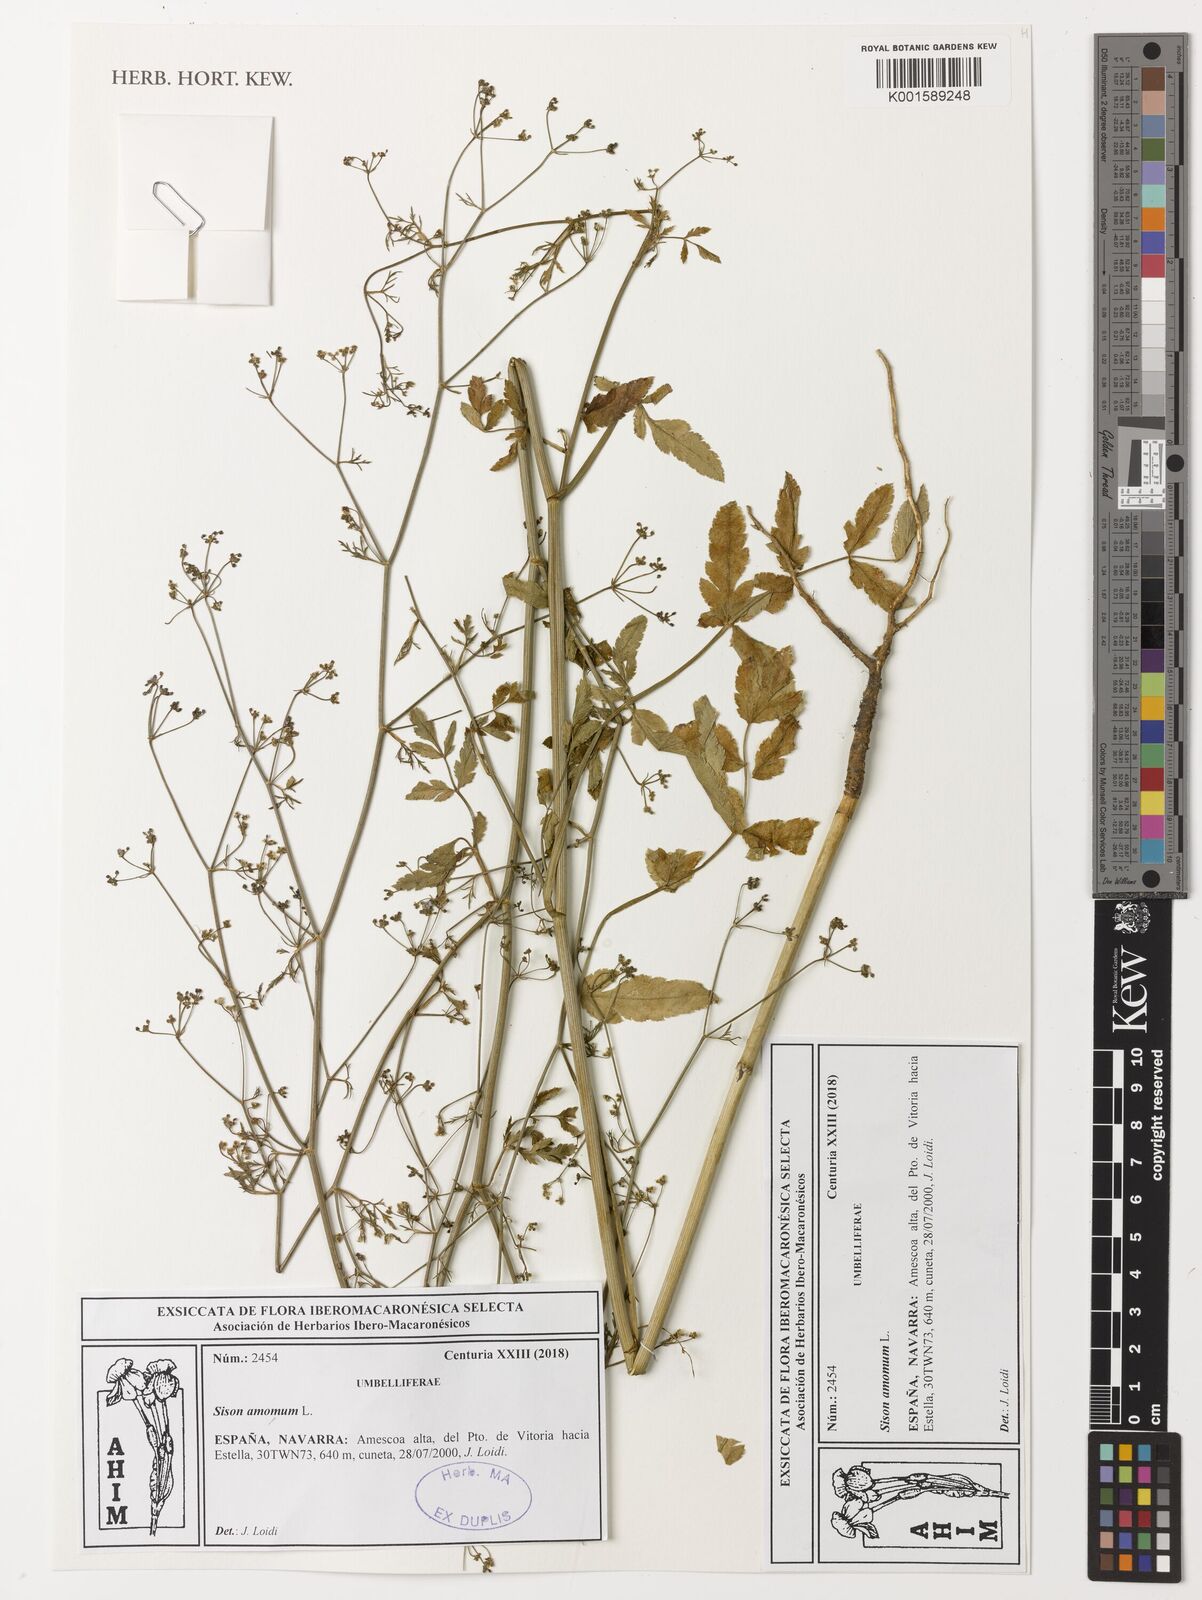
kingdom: Plantae
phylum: Tracheophyta
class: Magnoliopsida
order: Apiales
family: Apiaceae
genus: Sison
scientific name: Sison amomum
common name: Stone-parsley
